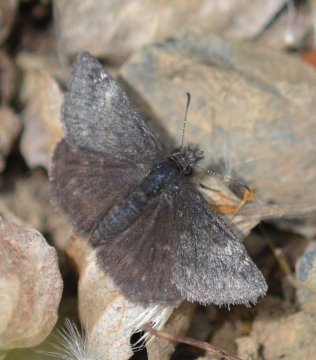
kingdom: Animalia
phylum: Arthropoda
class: Insecta
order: Lepidoptera
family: Hesperiidae
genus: Gesta
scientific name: Gesta
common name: Persius Duskywing
